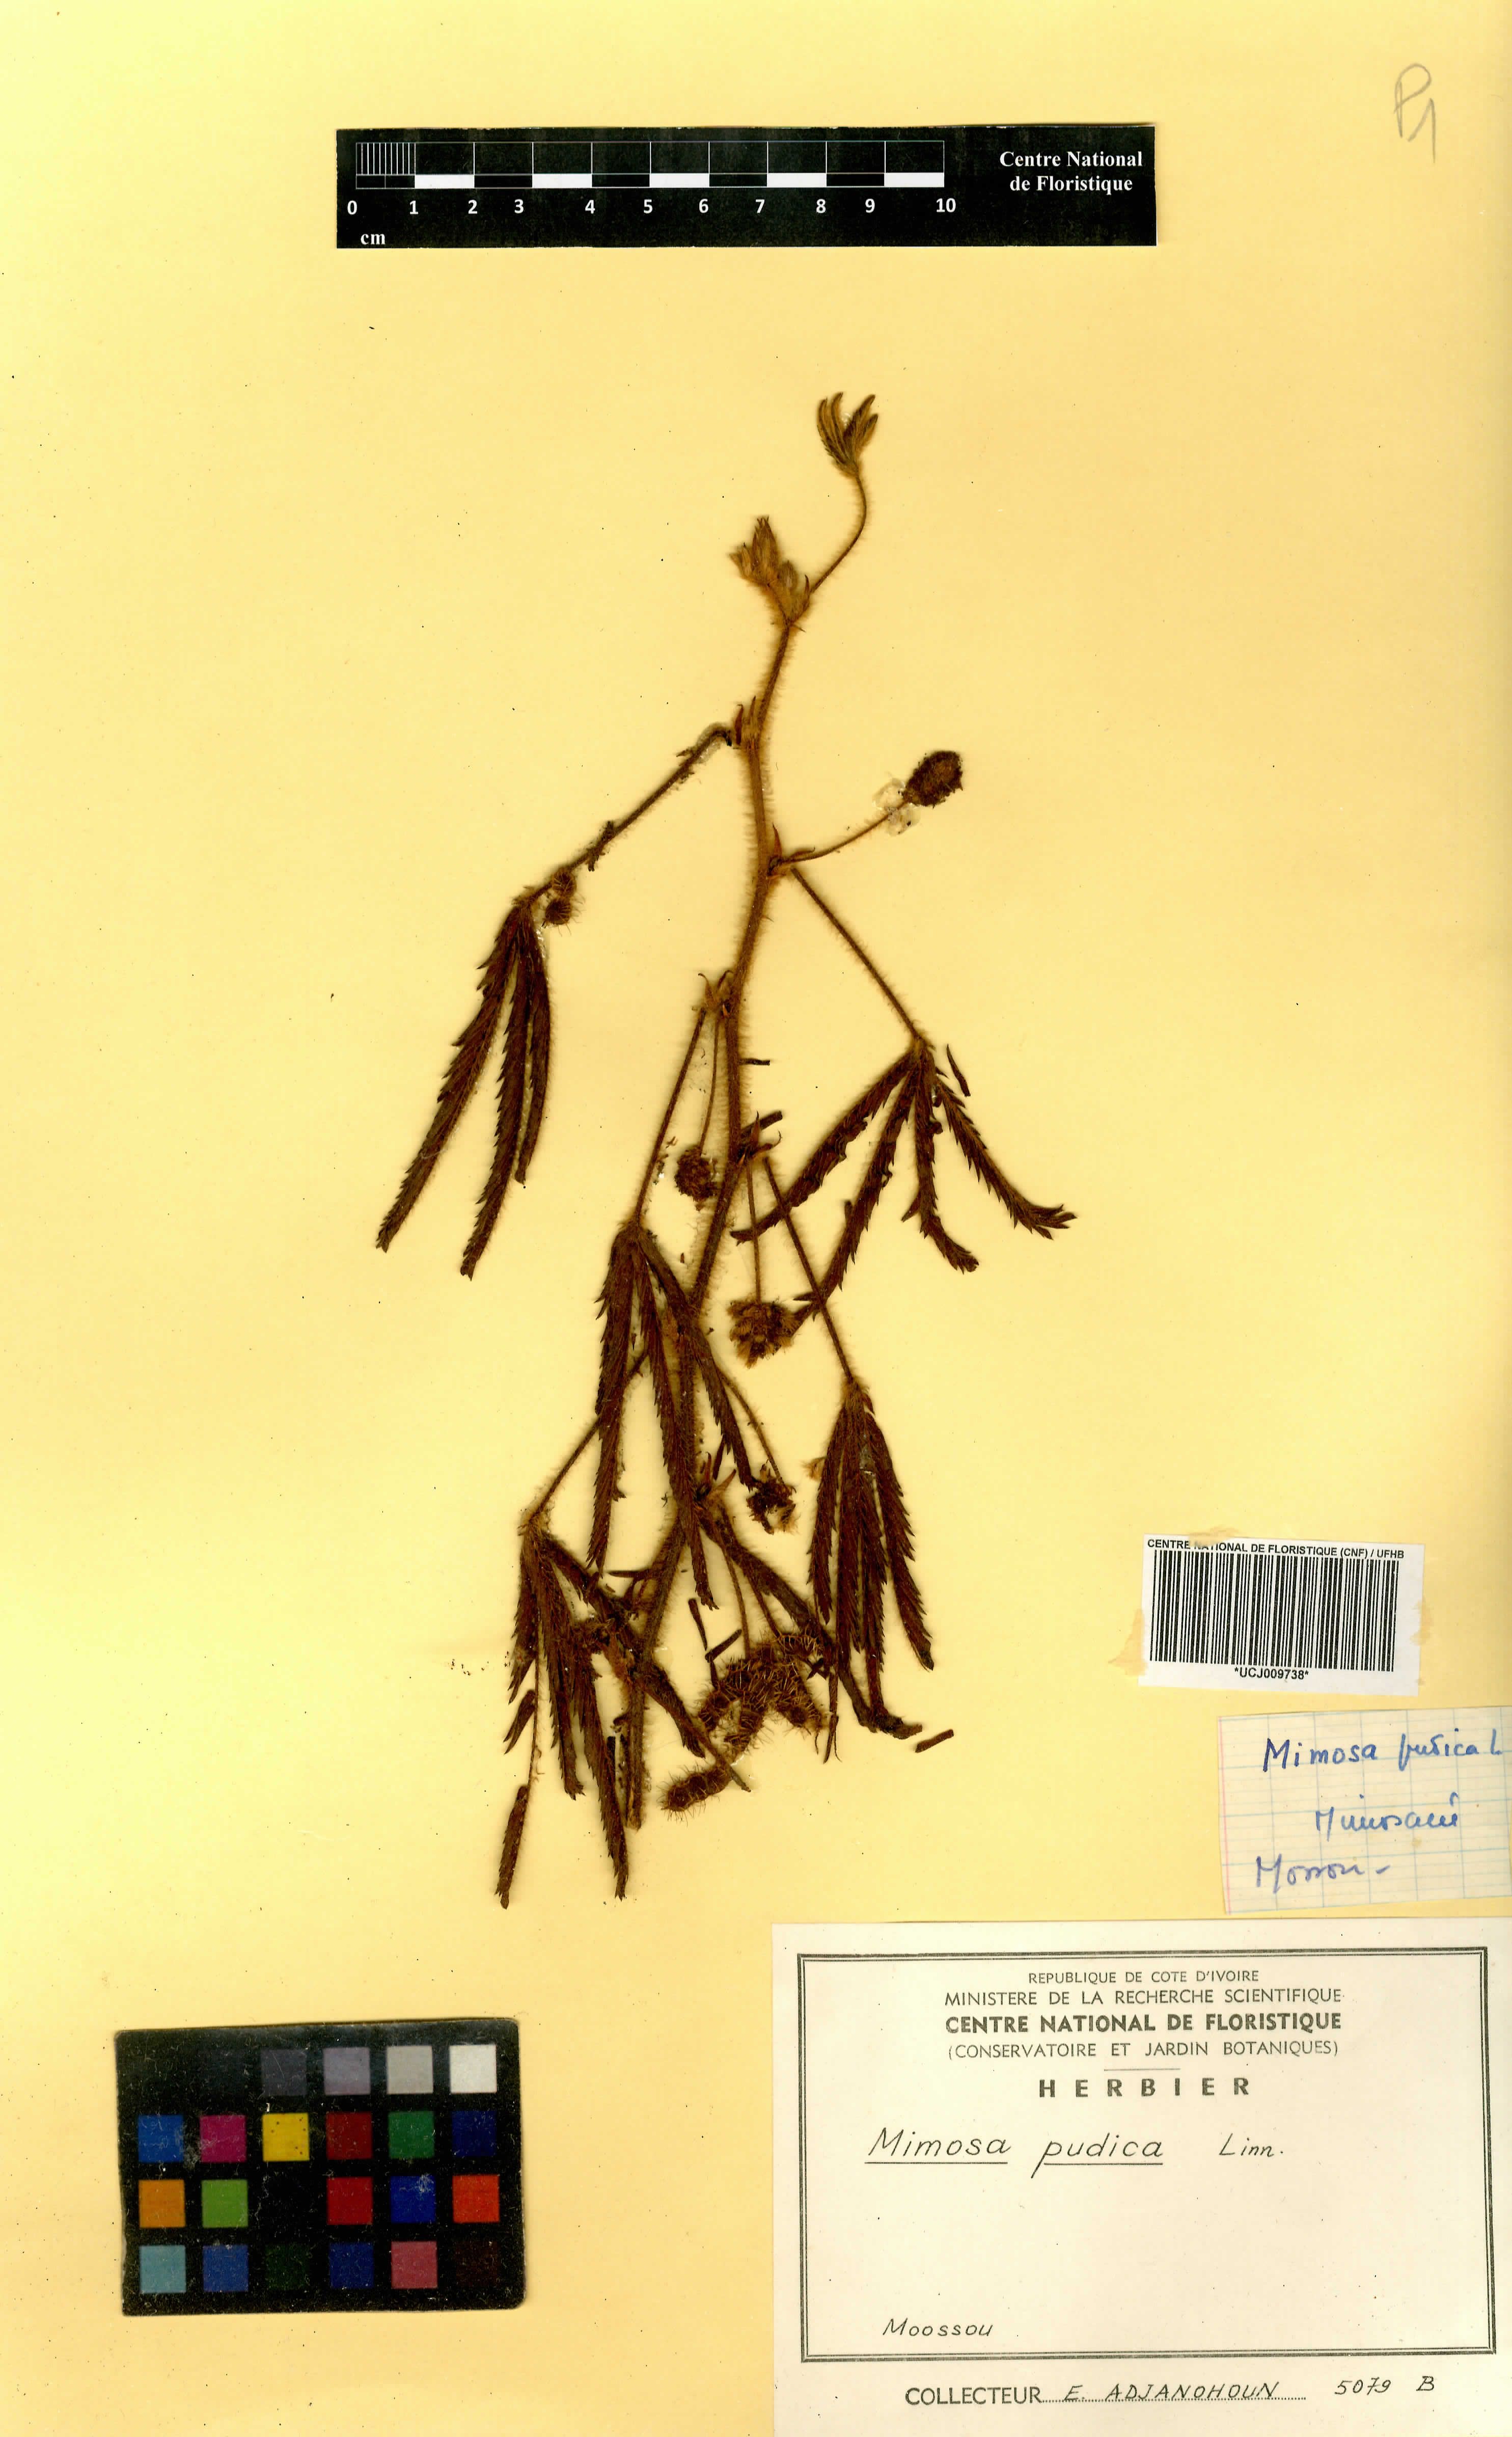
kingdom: Plantae
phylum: Tracheophyta
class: Magnoliopsida
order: Fabales
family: Fabaceae
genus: Mimosa
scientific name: Mimosa pudica
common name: Sensitive plant
